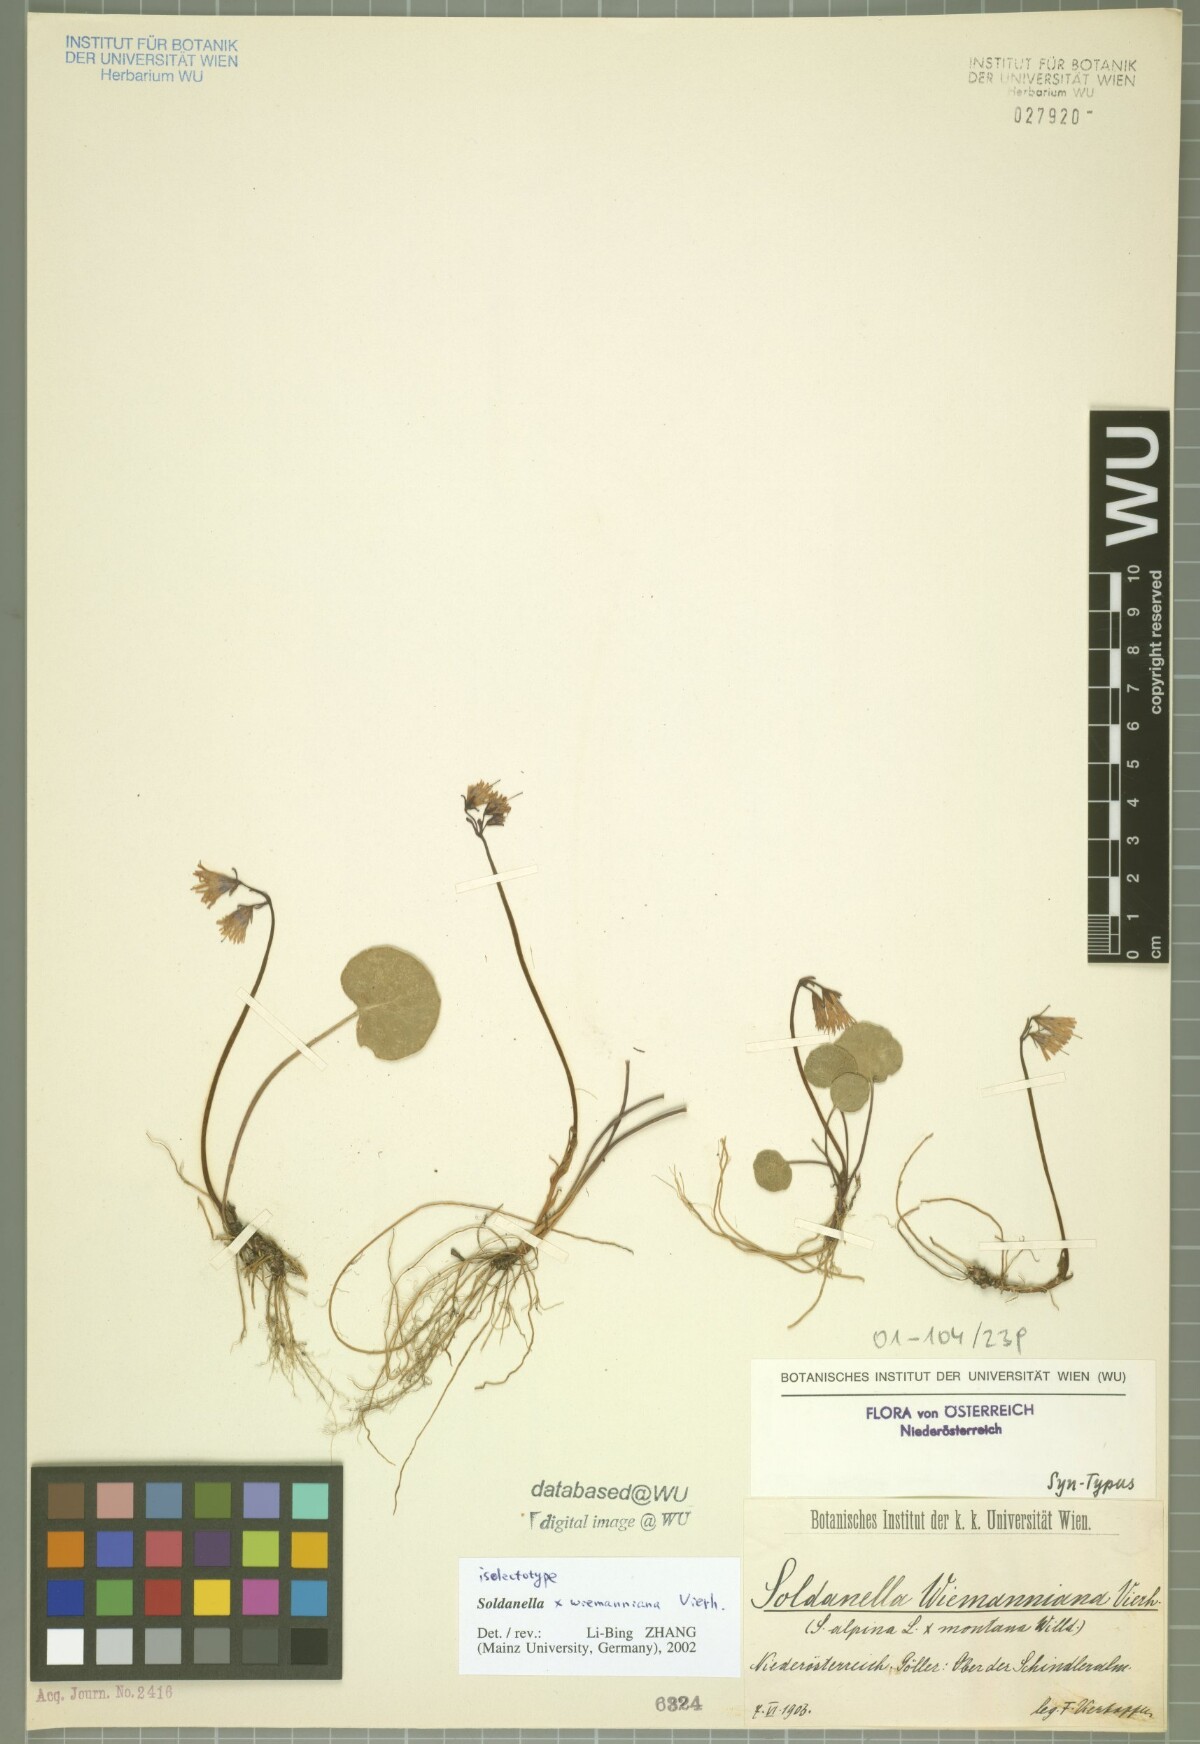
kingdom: Plantae
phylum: Tracheophyta
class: Magnoliopsida
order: Ericales
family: Primulaceae
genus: Soldanella
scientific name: Soldanella wiemanniana
